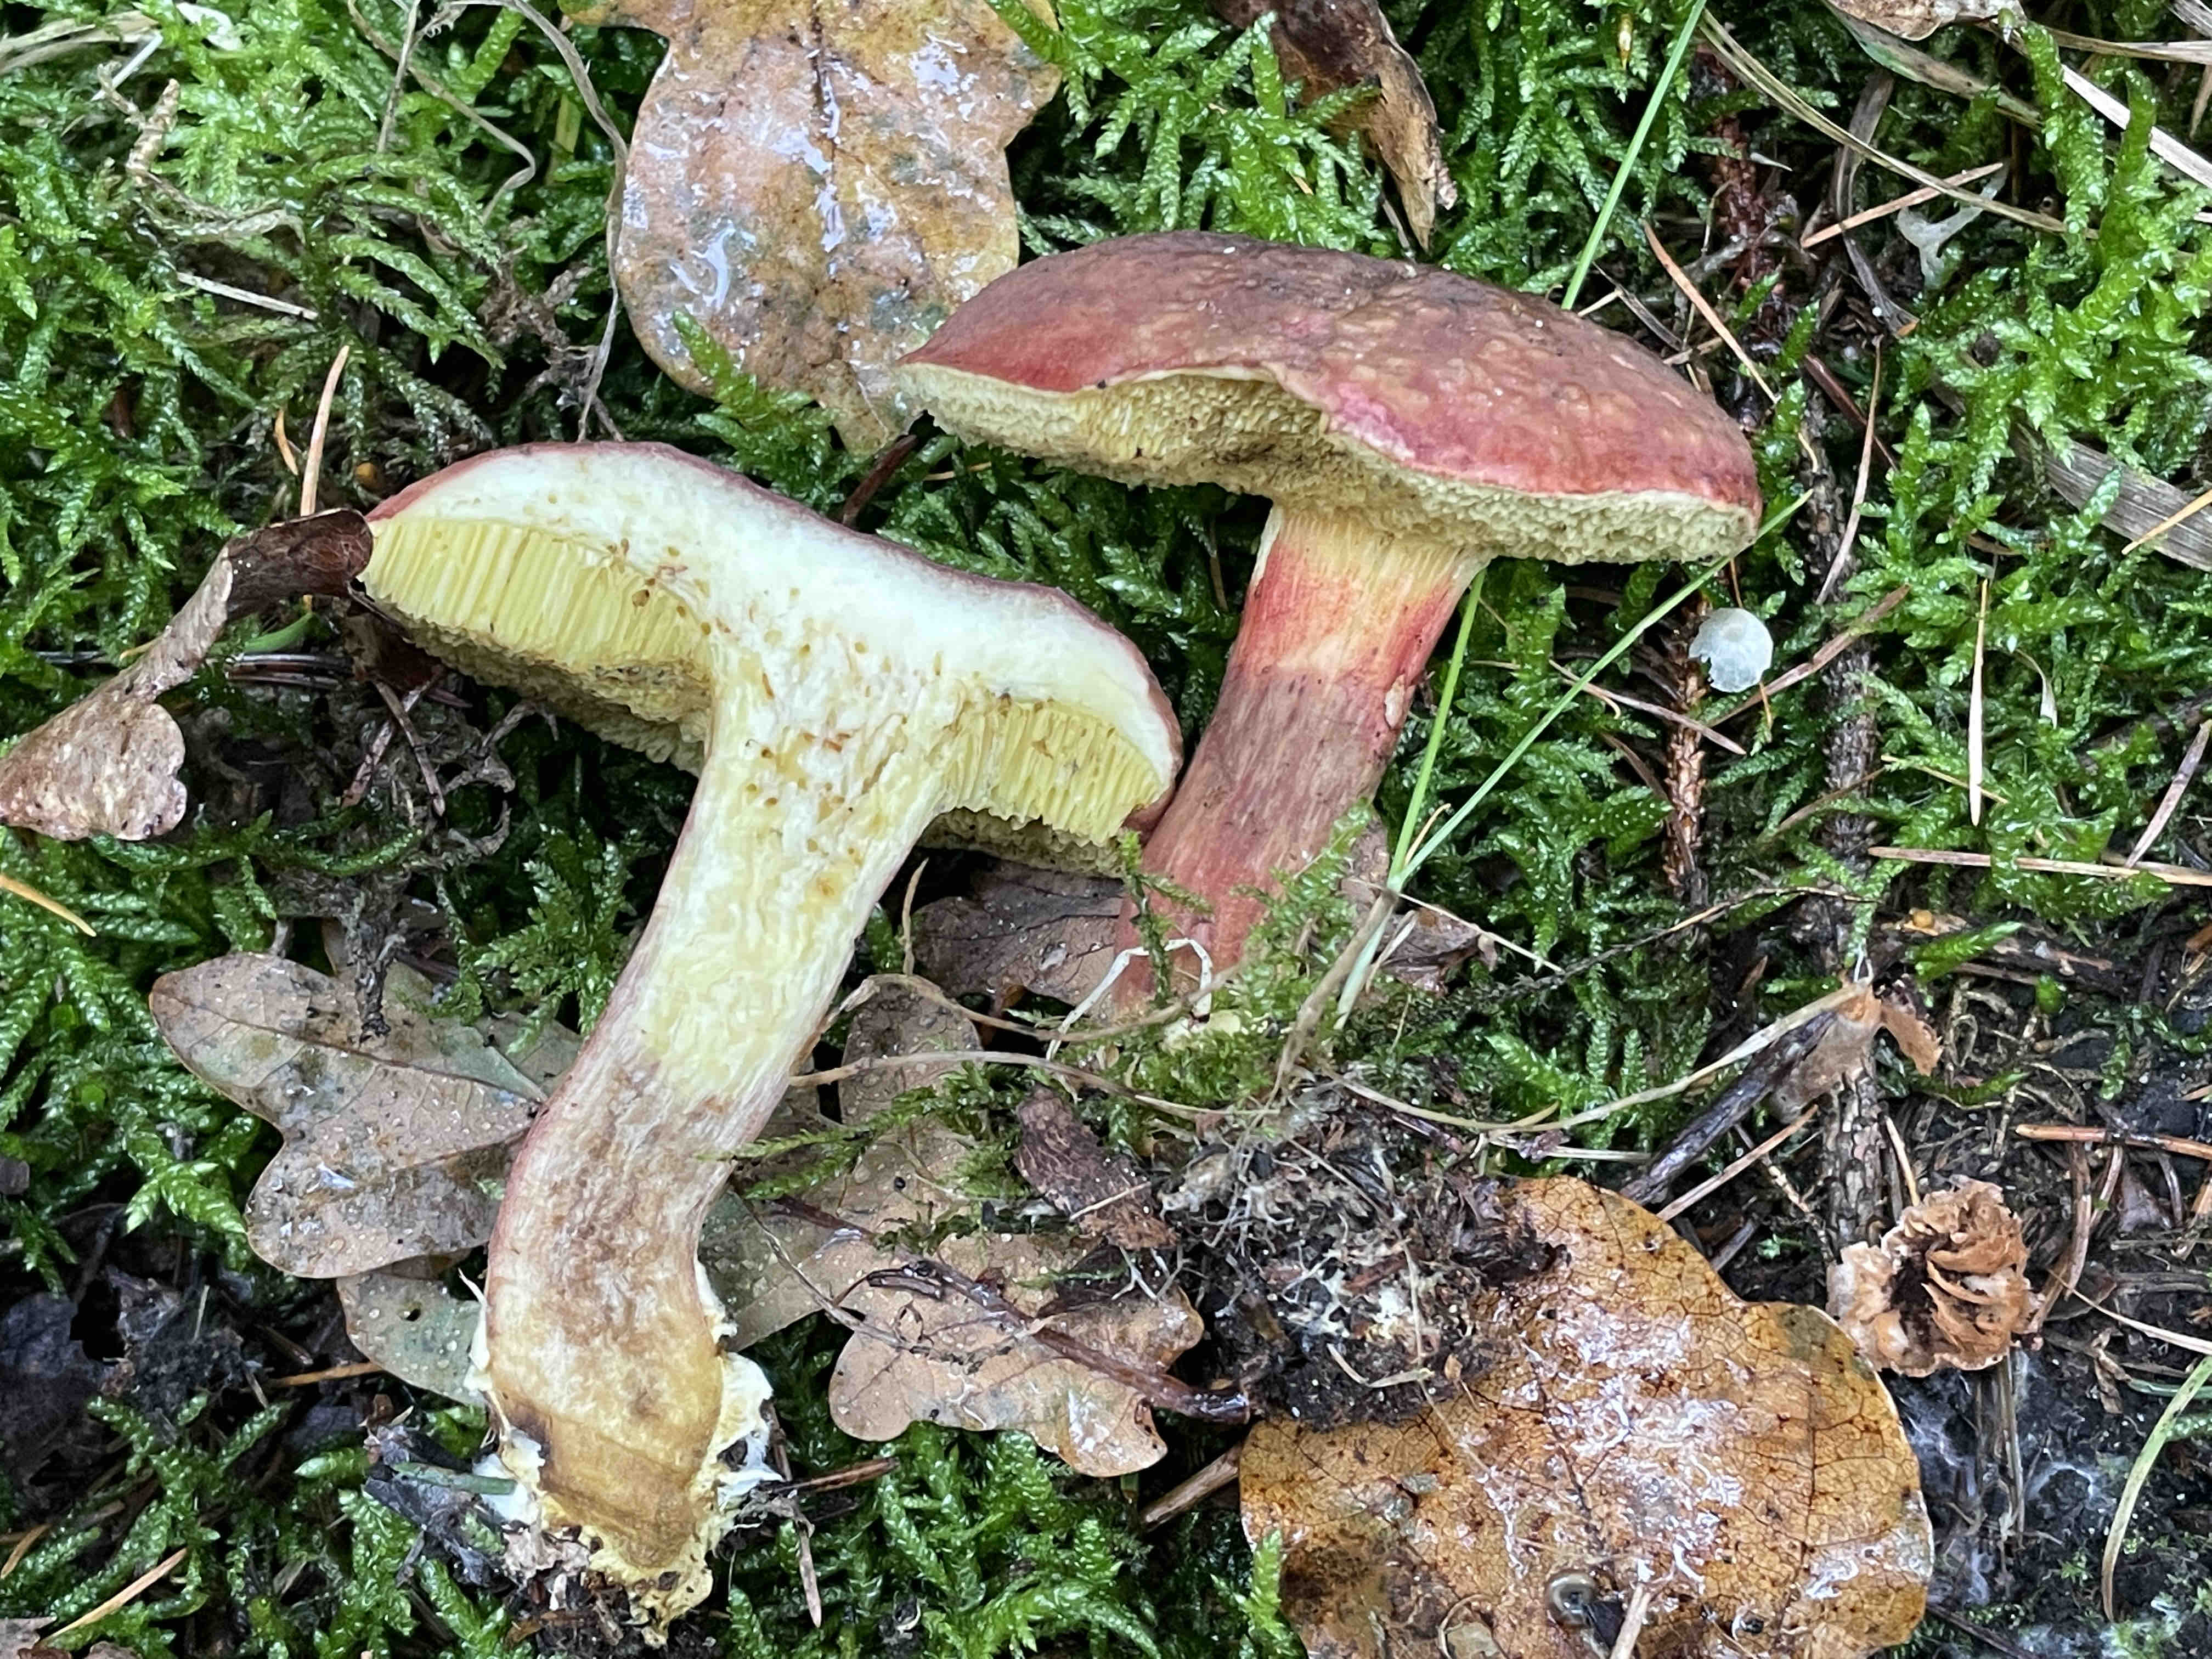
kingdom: Fungi
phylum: Basidiomycota
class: Agaricomycetes
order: Boletales
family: Boletaceae
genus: Xerocomellus
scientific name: Xerocomellus pruinatus
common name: dugget rørhat
